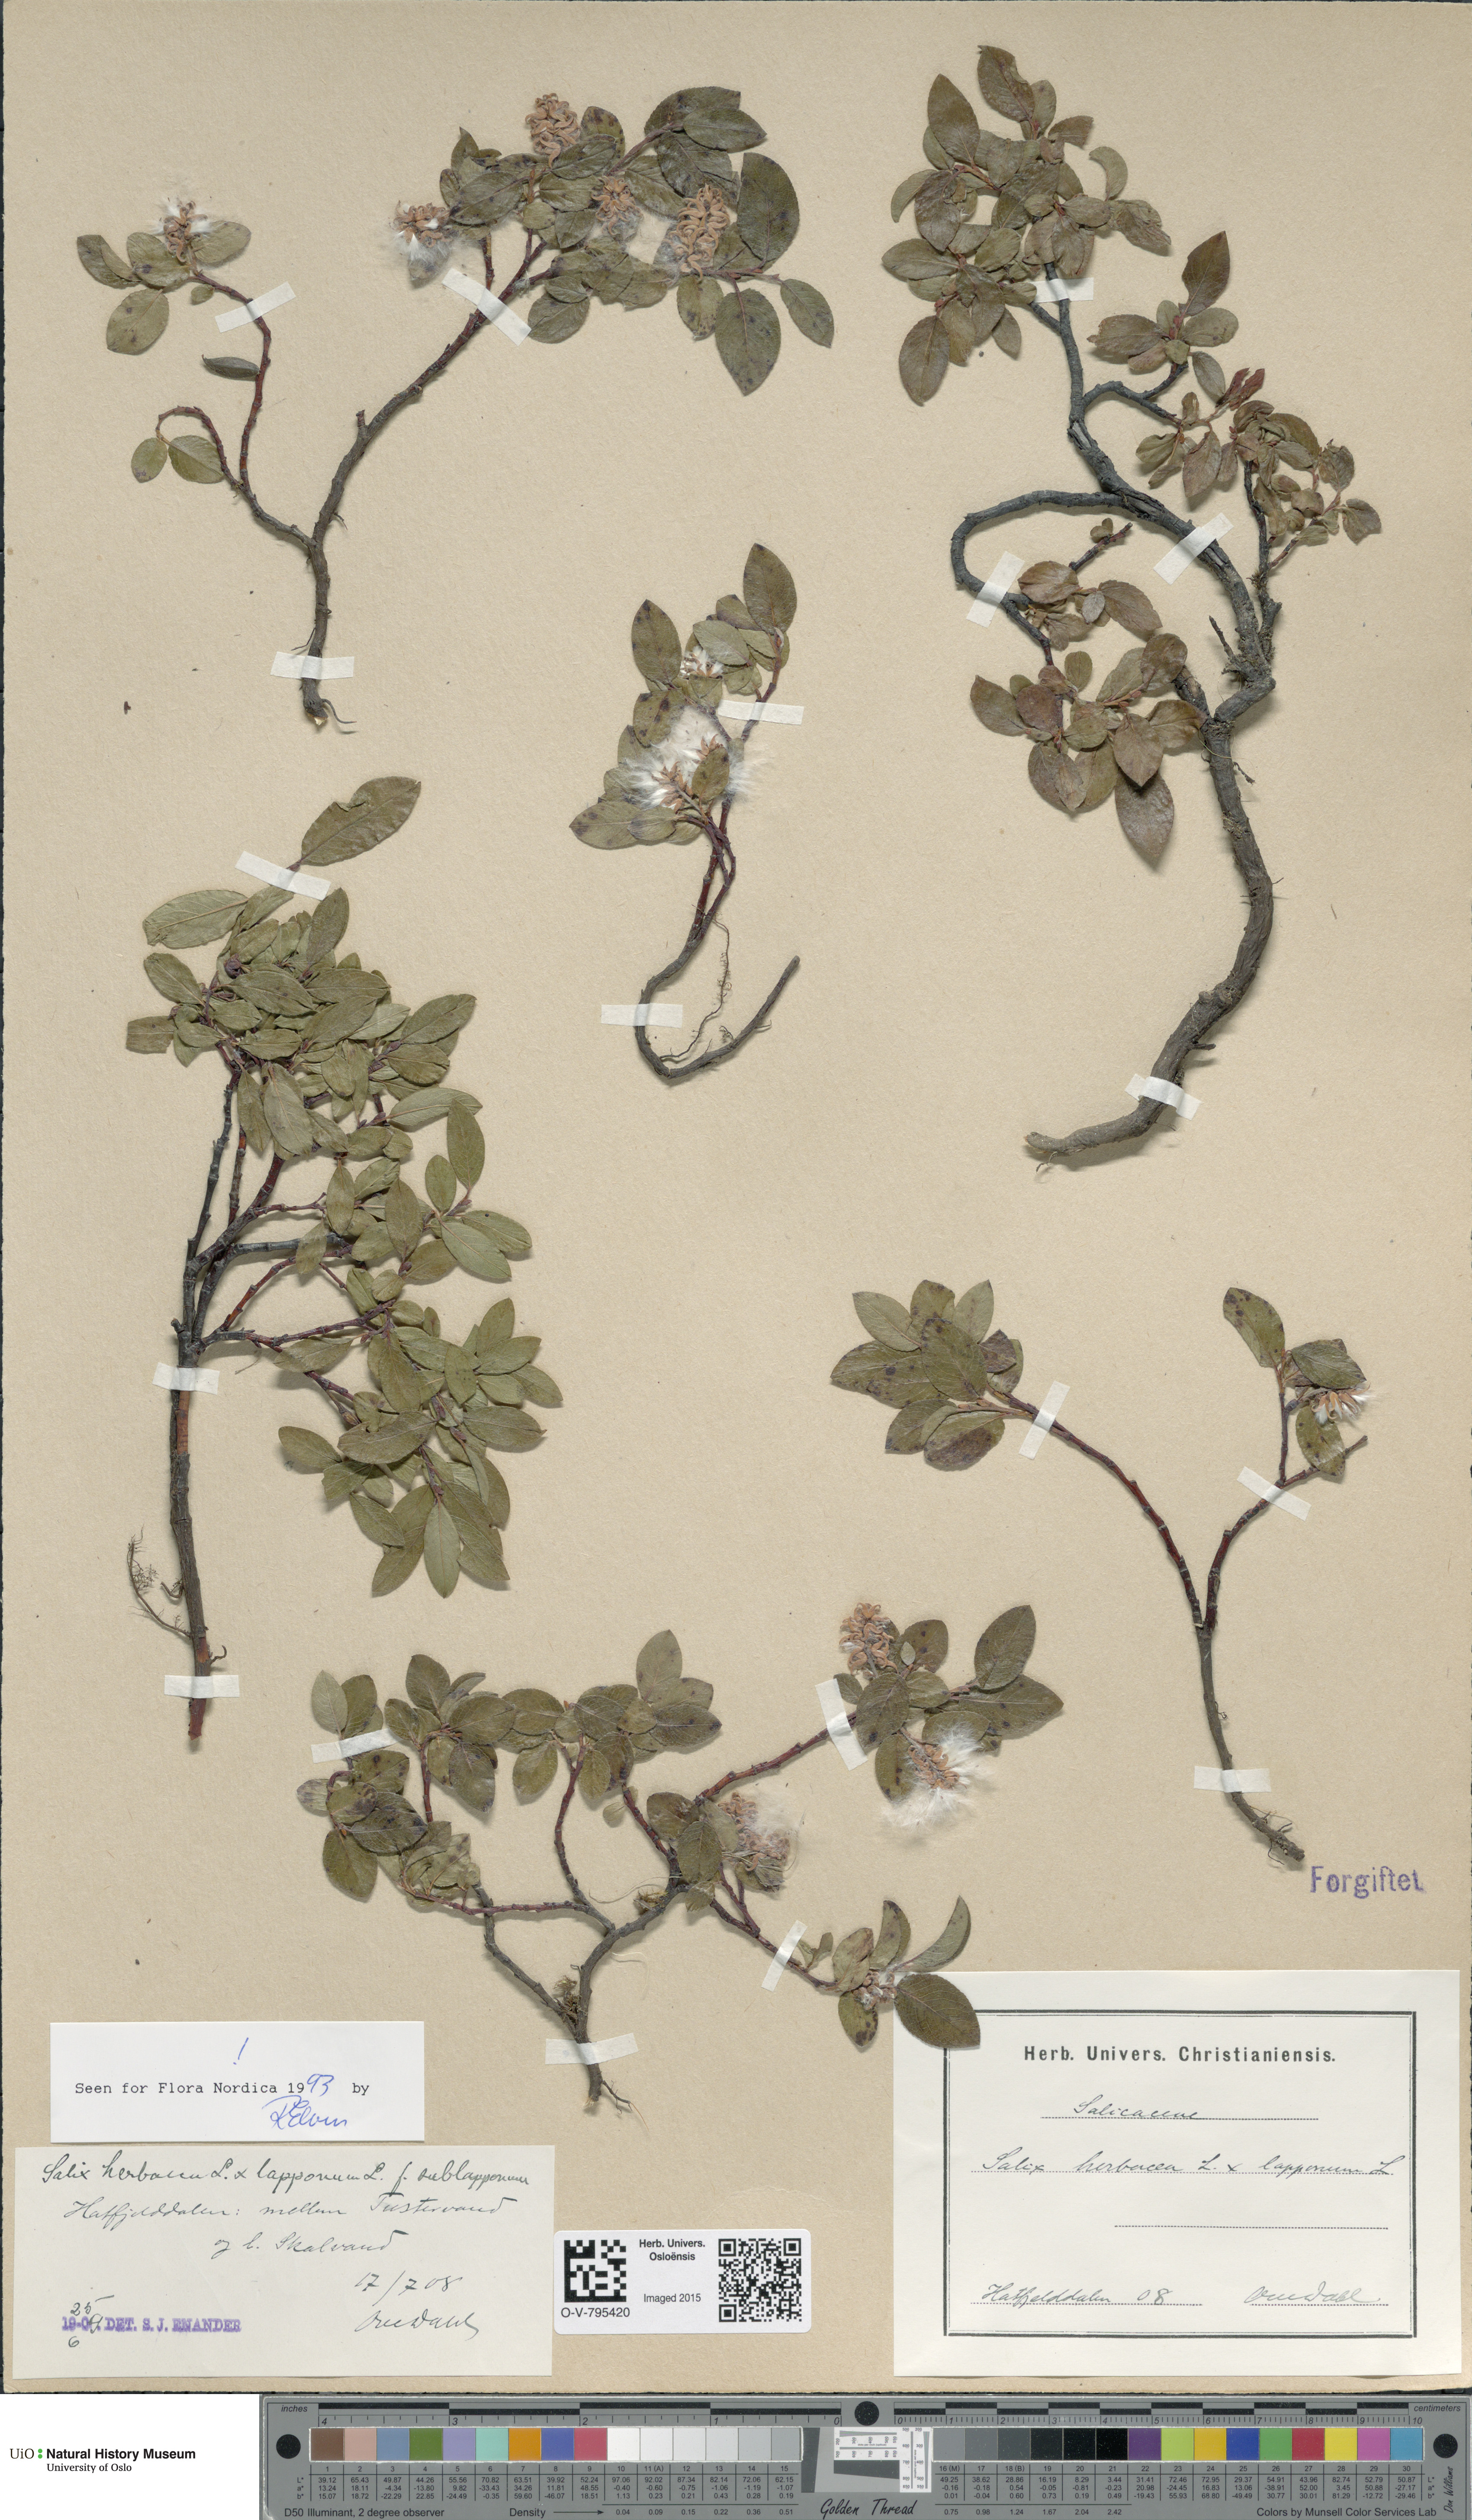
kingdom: Plantae
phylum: Tracheophyta
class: Magnoliopsida
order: Malpighiales
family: Salicaceae
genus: Salix
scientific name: Salix
